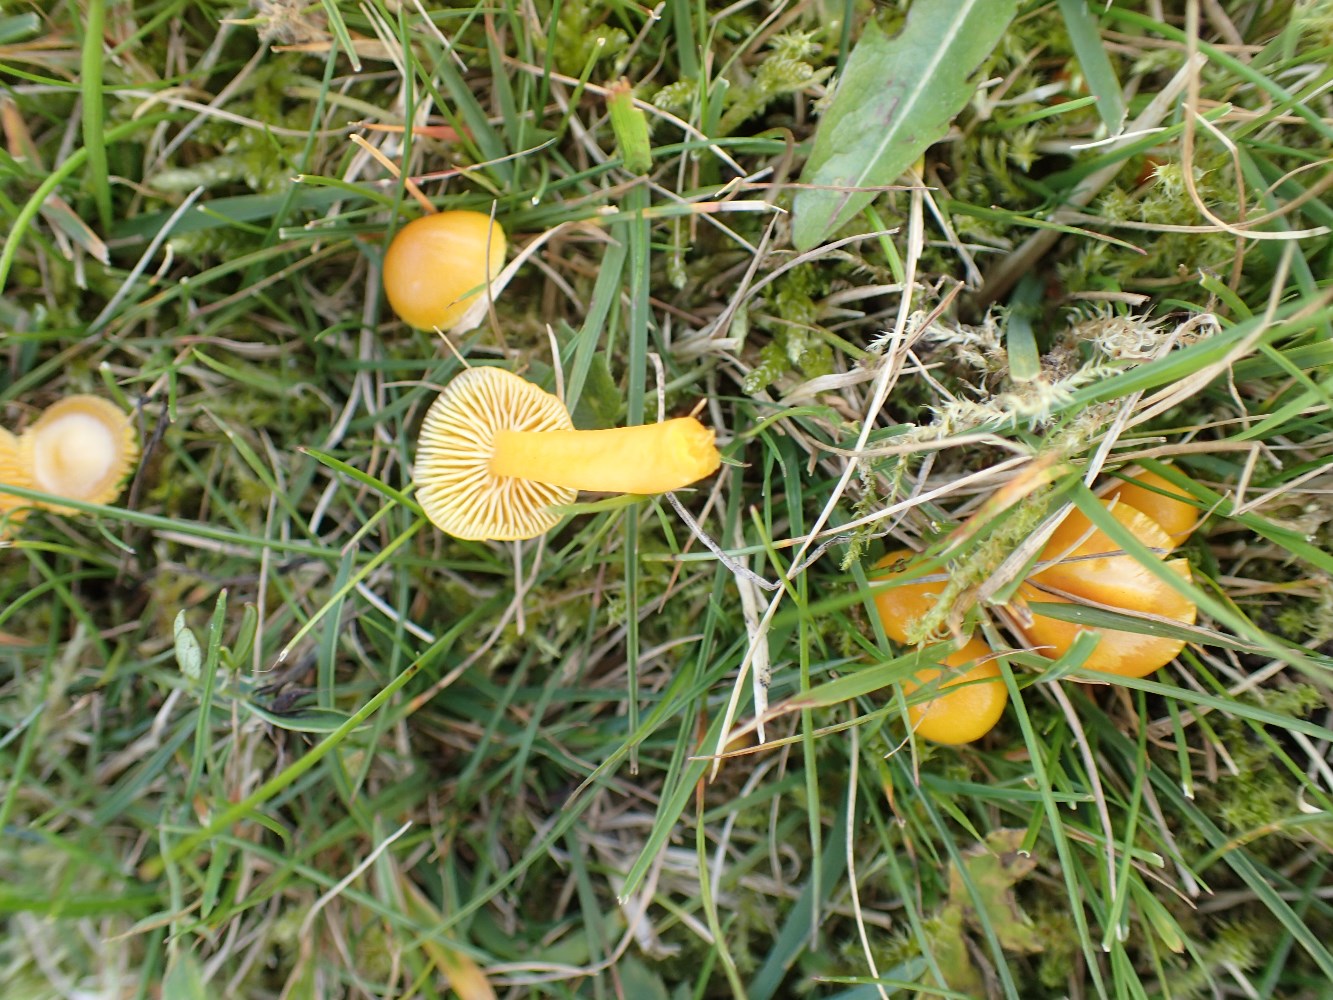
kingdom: Fungi
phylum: Basidiomycota
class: Agaricomycetes
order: Agaricales
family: Hygrophoraceae
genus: Hygrocybe
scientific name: Hygrocybe ceracea
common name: voksgul vokshat
